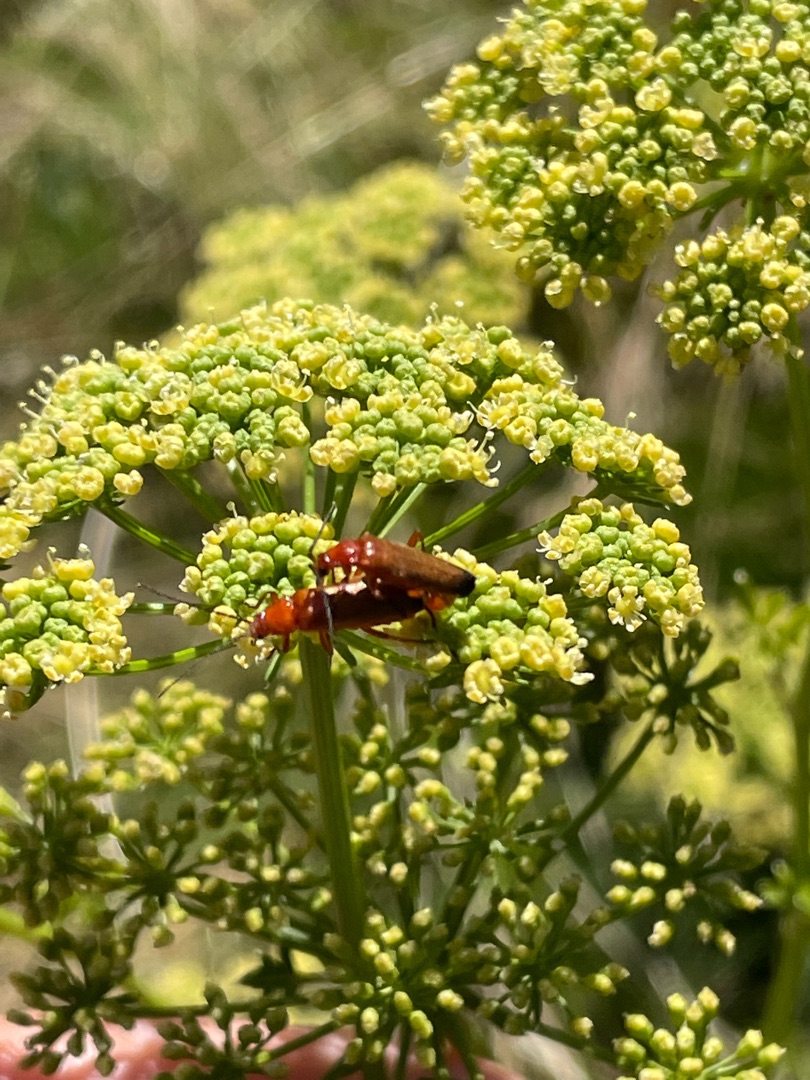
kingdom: Animalia
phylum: Arthropoda
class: Insecta
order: Coleoptera
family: Cantharidae
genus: Rhagonycha
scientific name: Rhagonycha fulva
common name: Præstebille
